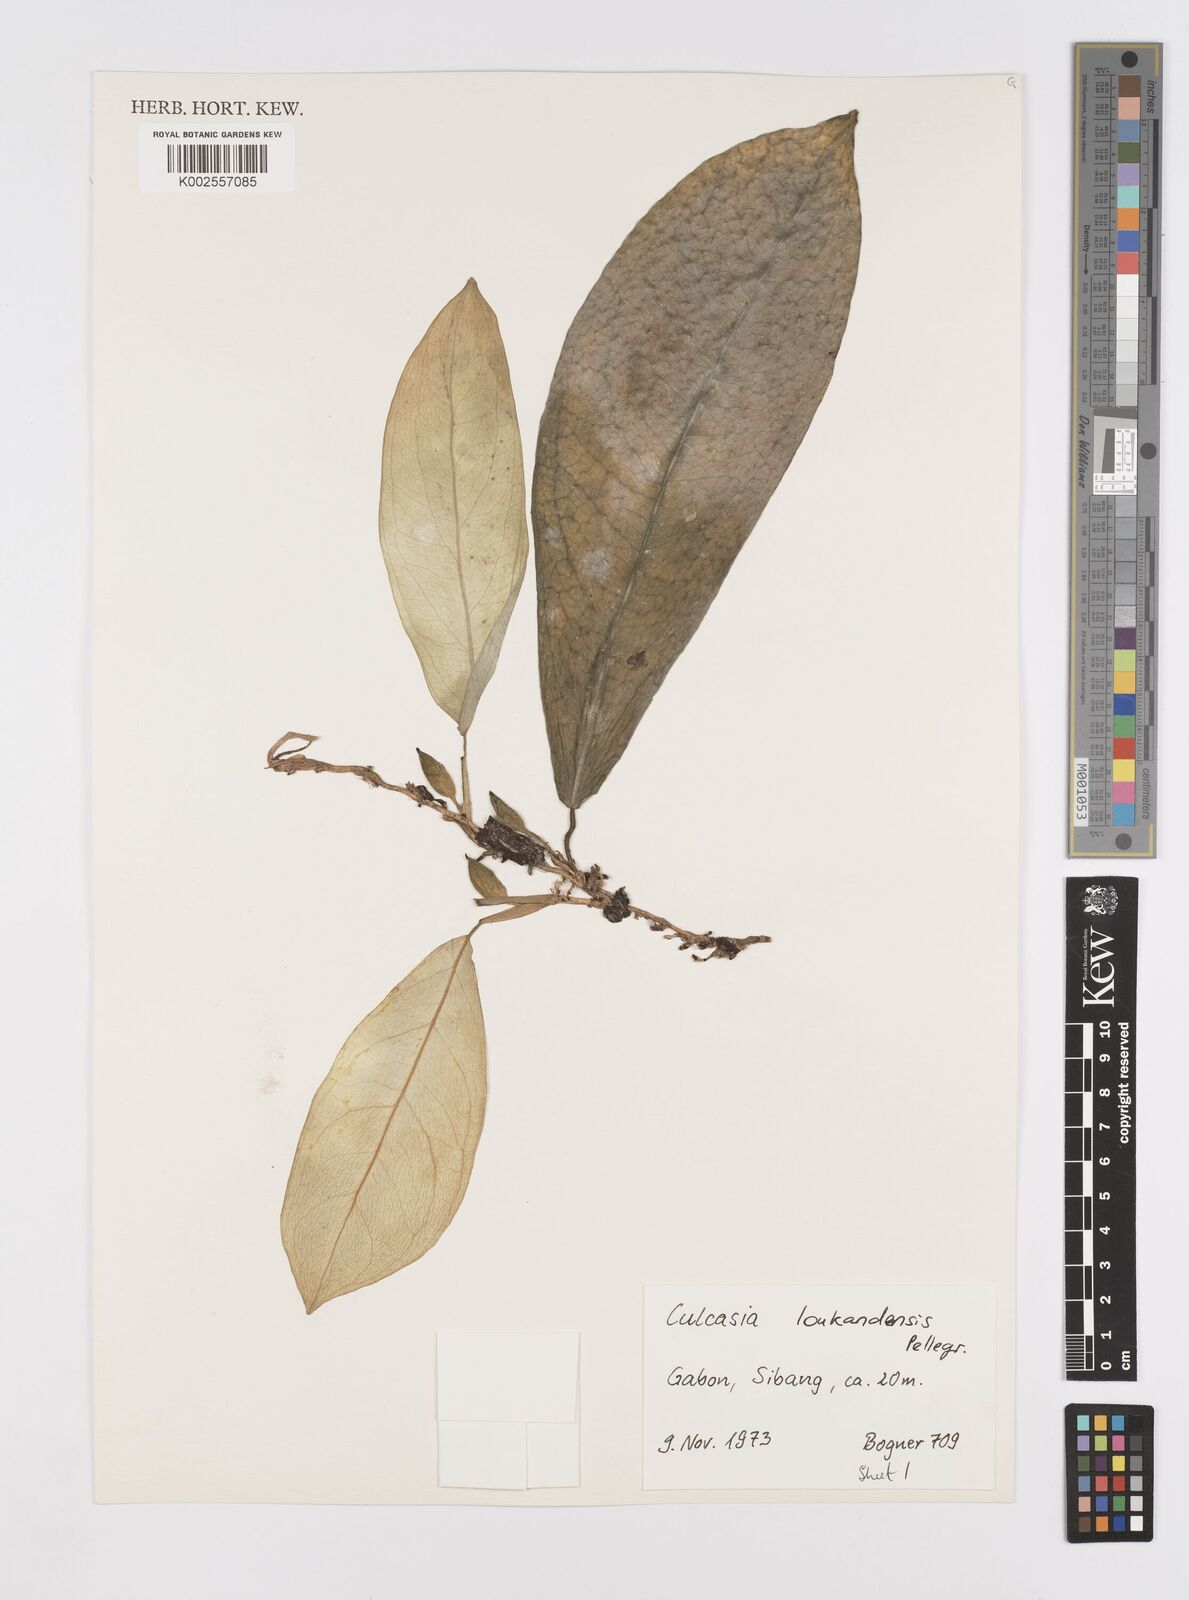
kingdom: Plantae
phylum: Tracheophyta
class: Liliopsida
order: Alismatales
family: Araceae
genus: Culcasia
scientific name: Culcasia loukandensis
